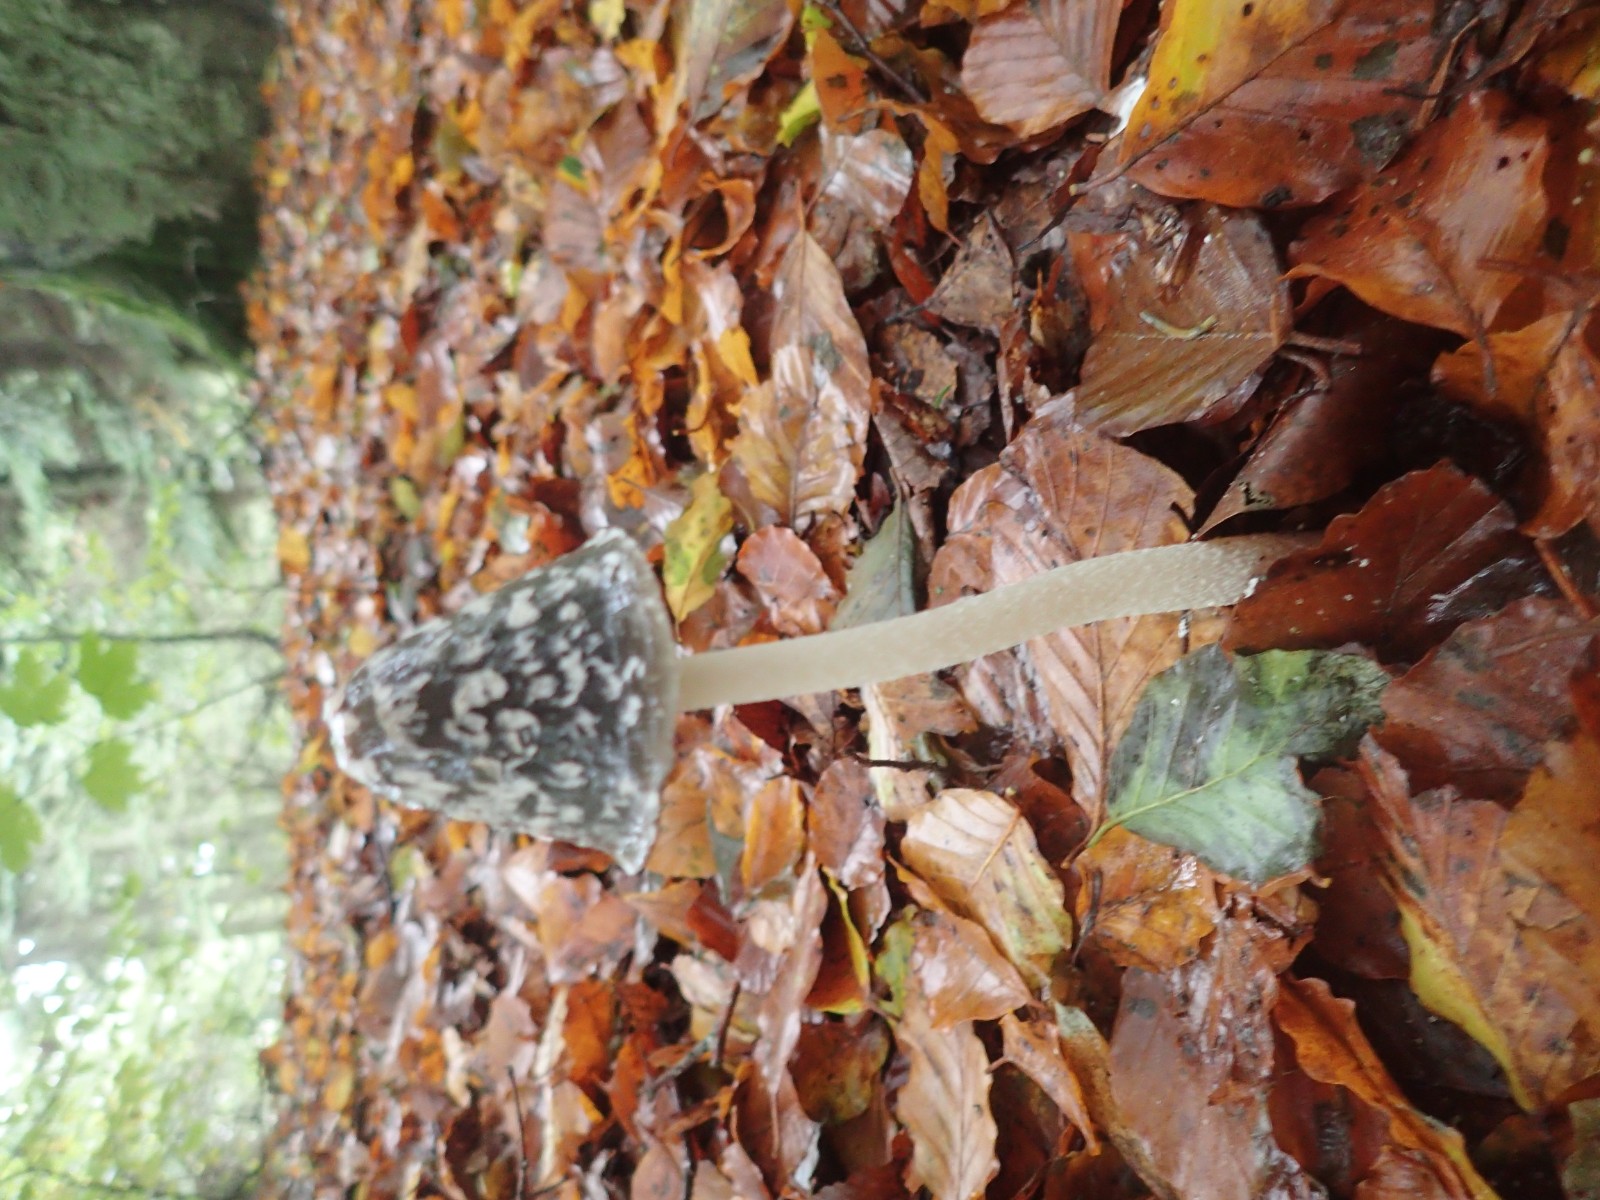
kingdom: Fungi
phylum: Basidiomycota
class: Agaricomycetes
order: Agaricales
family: Psathyrellaceae
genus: Coprinopsis
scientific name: Coprinopsis picacea
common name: skade-blækhat
